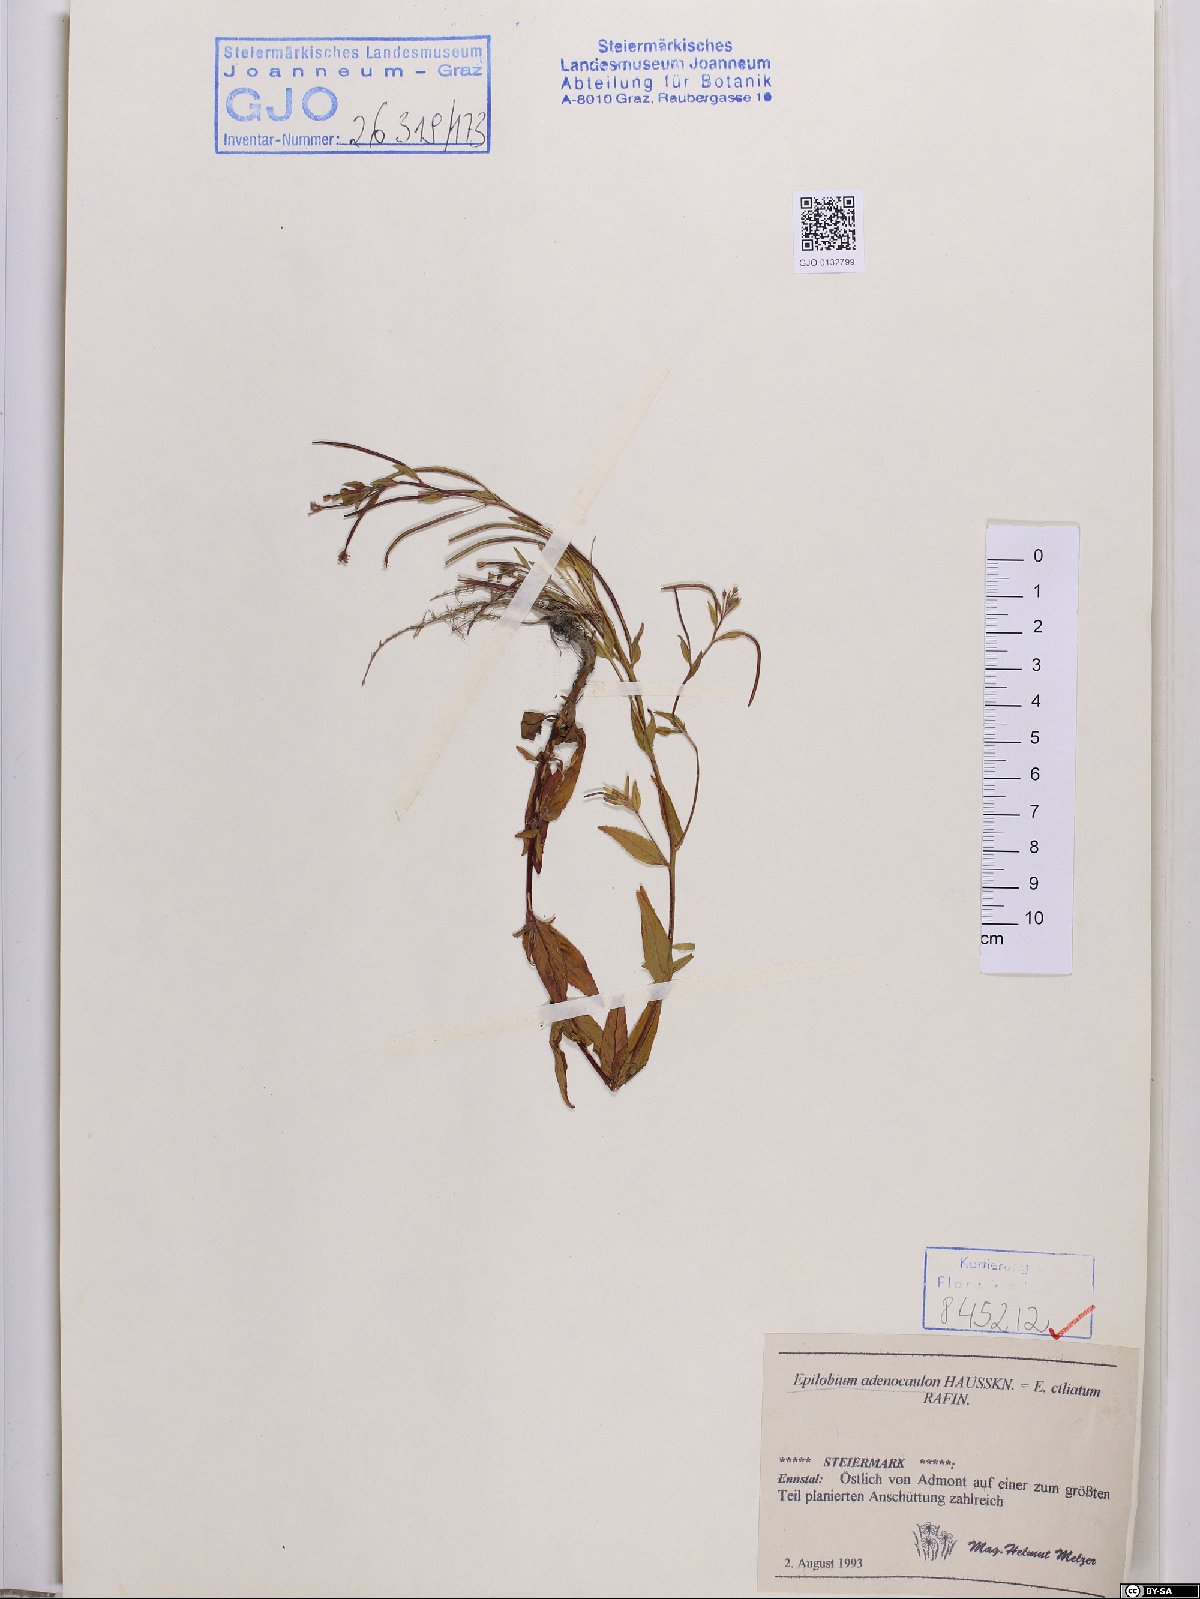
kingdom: Plantae
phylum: Tracheophyta
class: Magnoliopsida
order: Myrtales
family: Onagraceae
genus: Epilobium
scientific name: Epilobium ciliatum
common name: American willowherb
